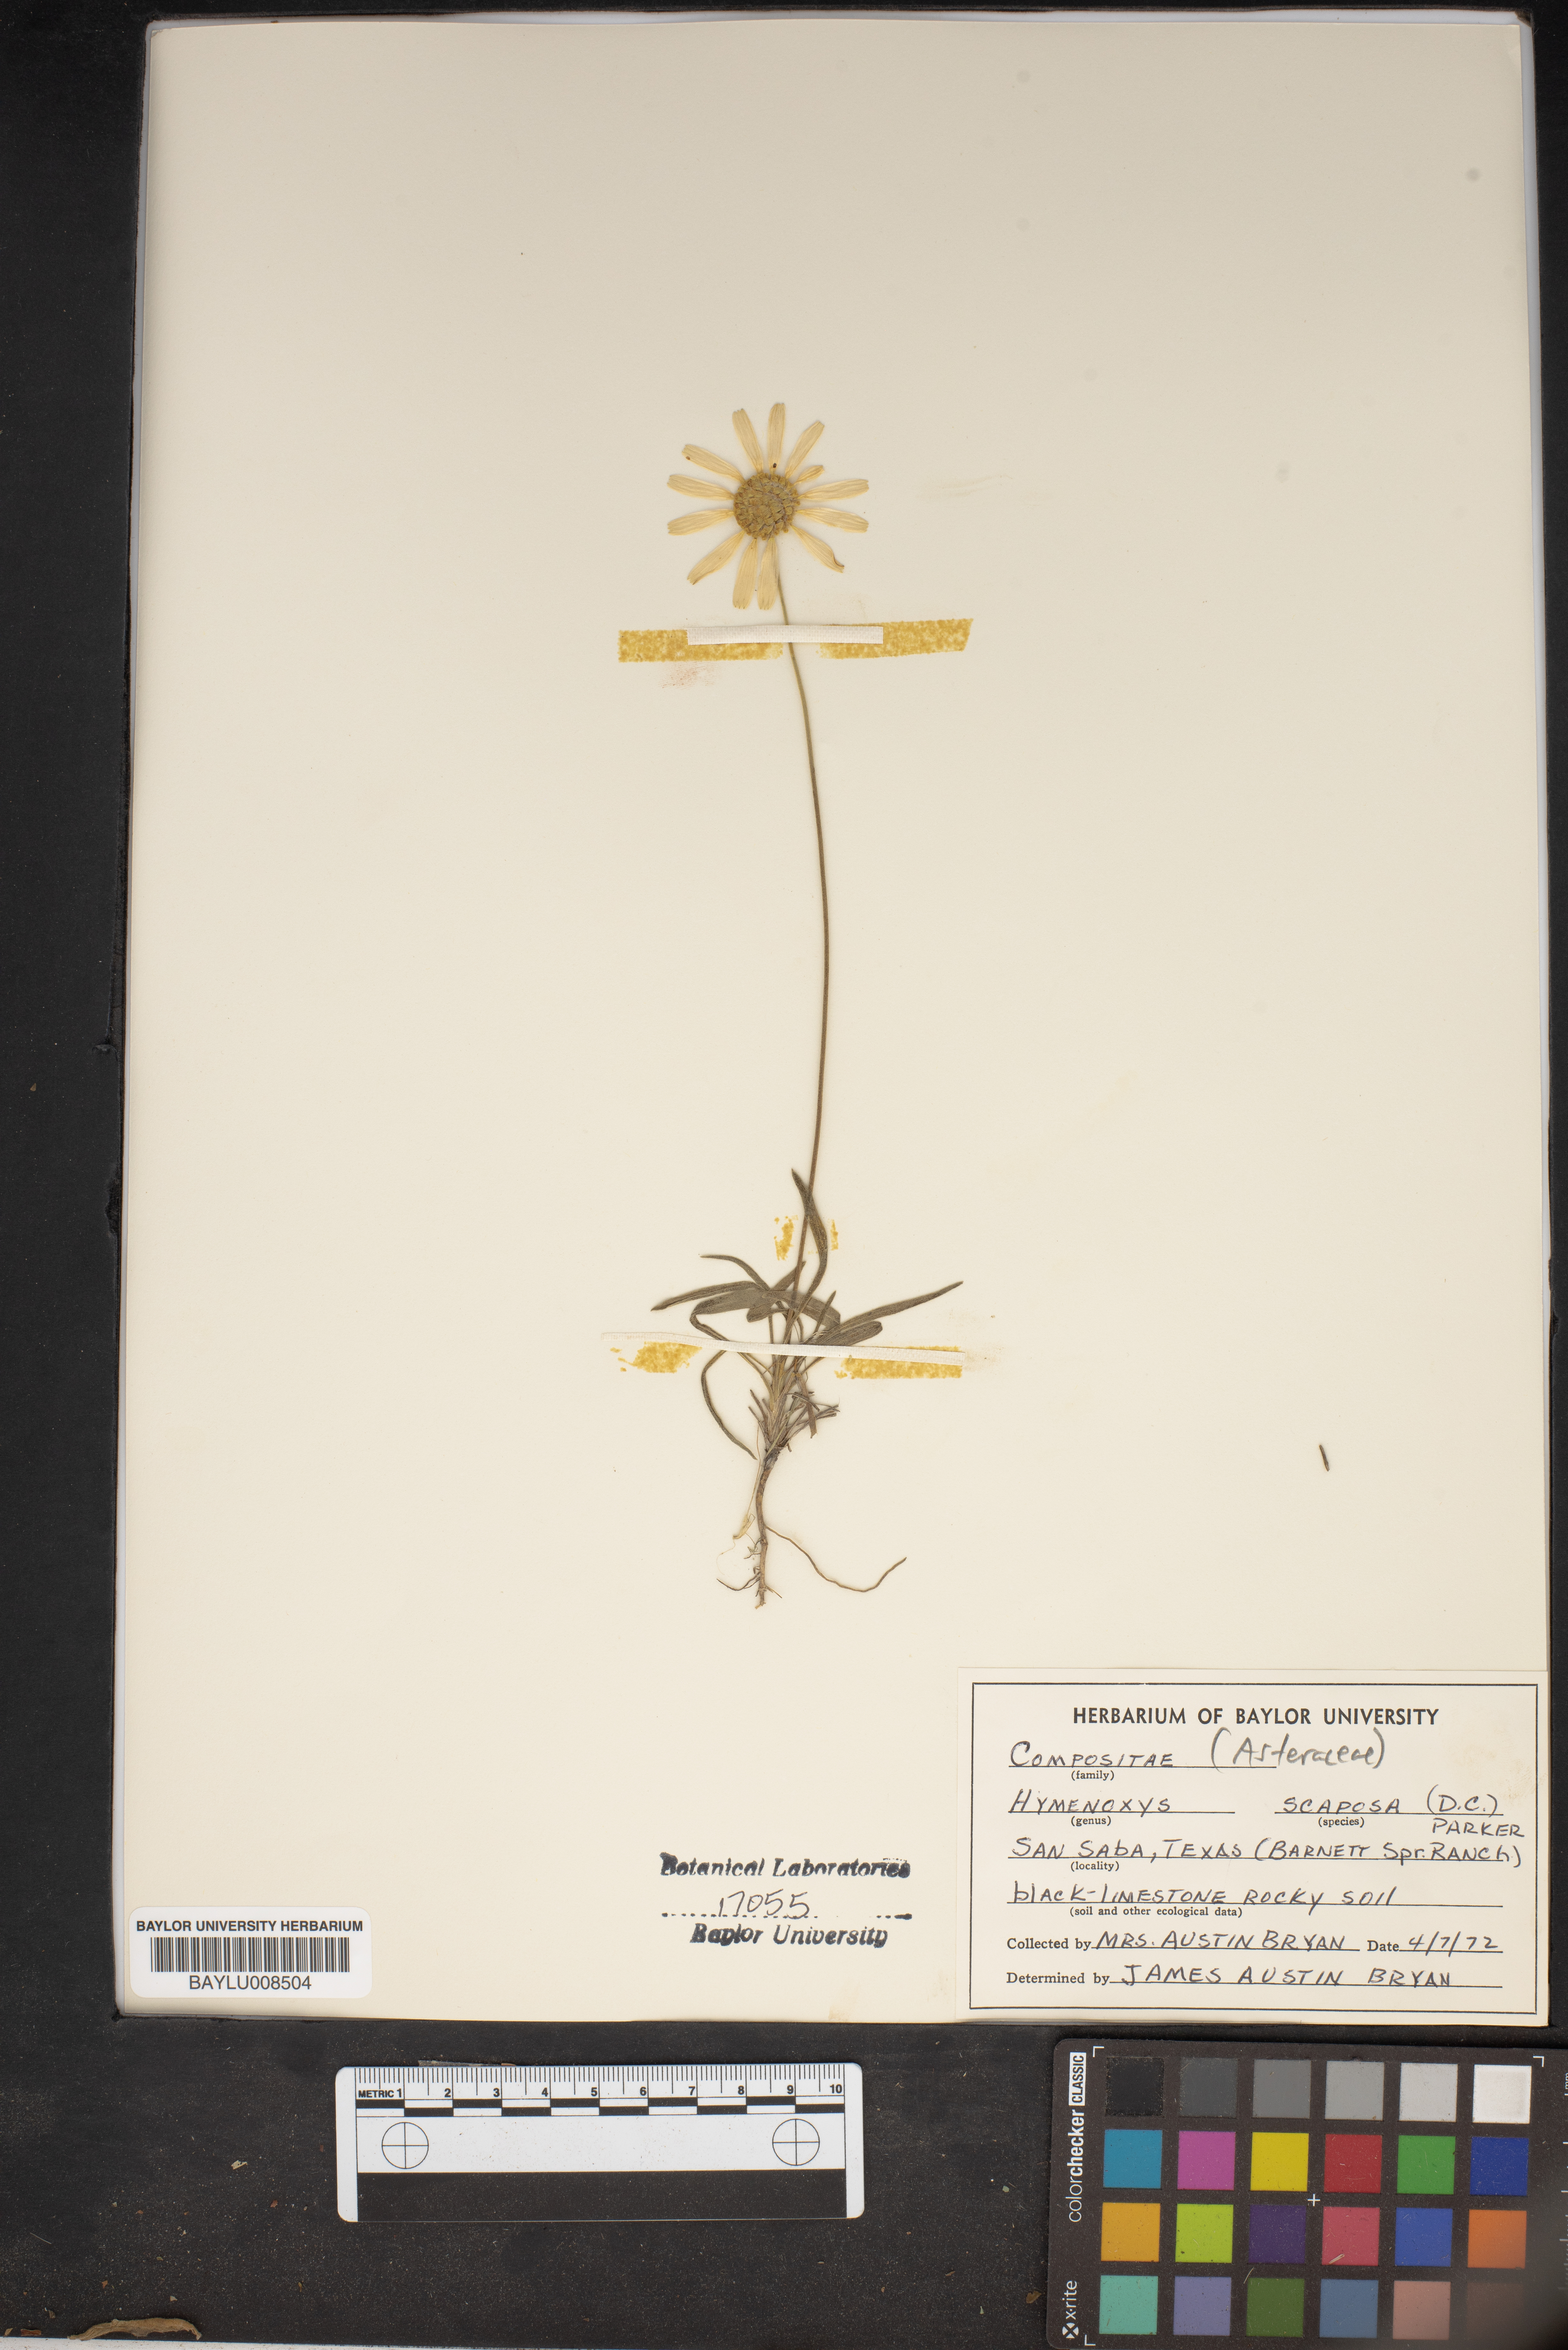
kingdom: Plantae
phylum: Tracheophyta
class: Magnoliopsida
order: Asterales
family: Asteraceae
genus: Tetraneuris
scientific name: Tetraneuris scaposa
